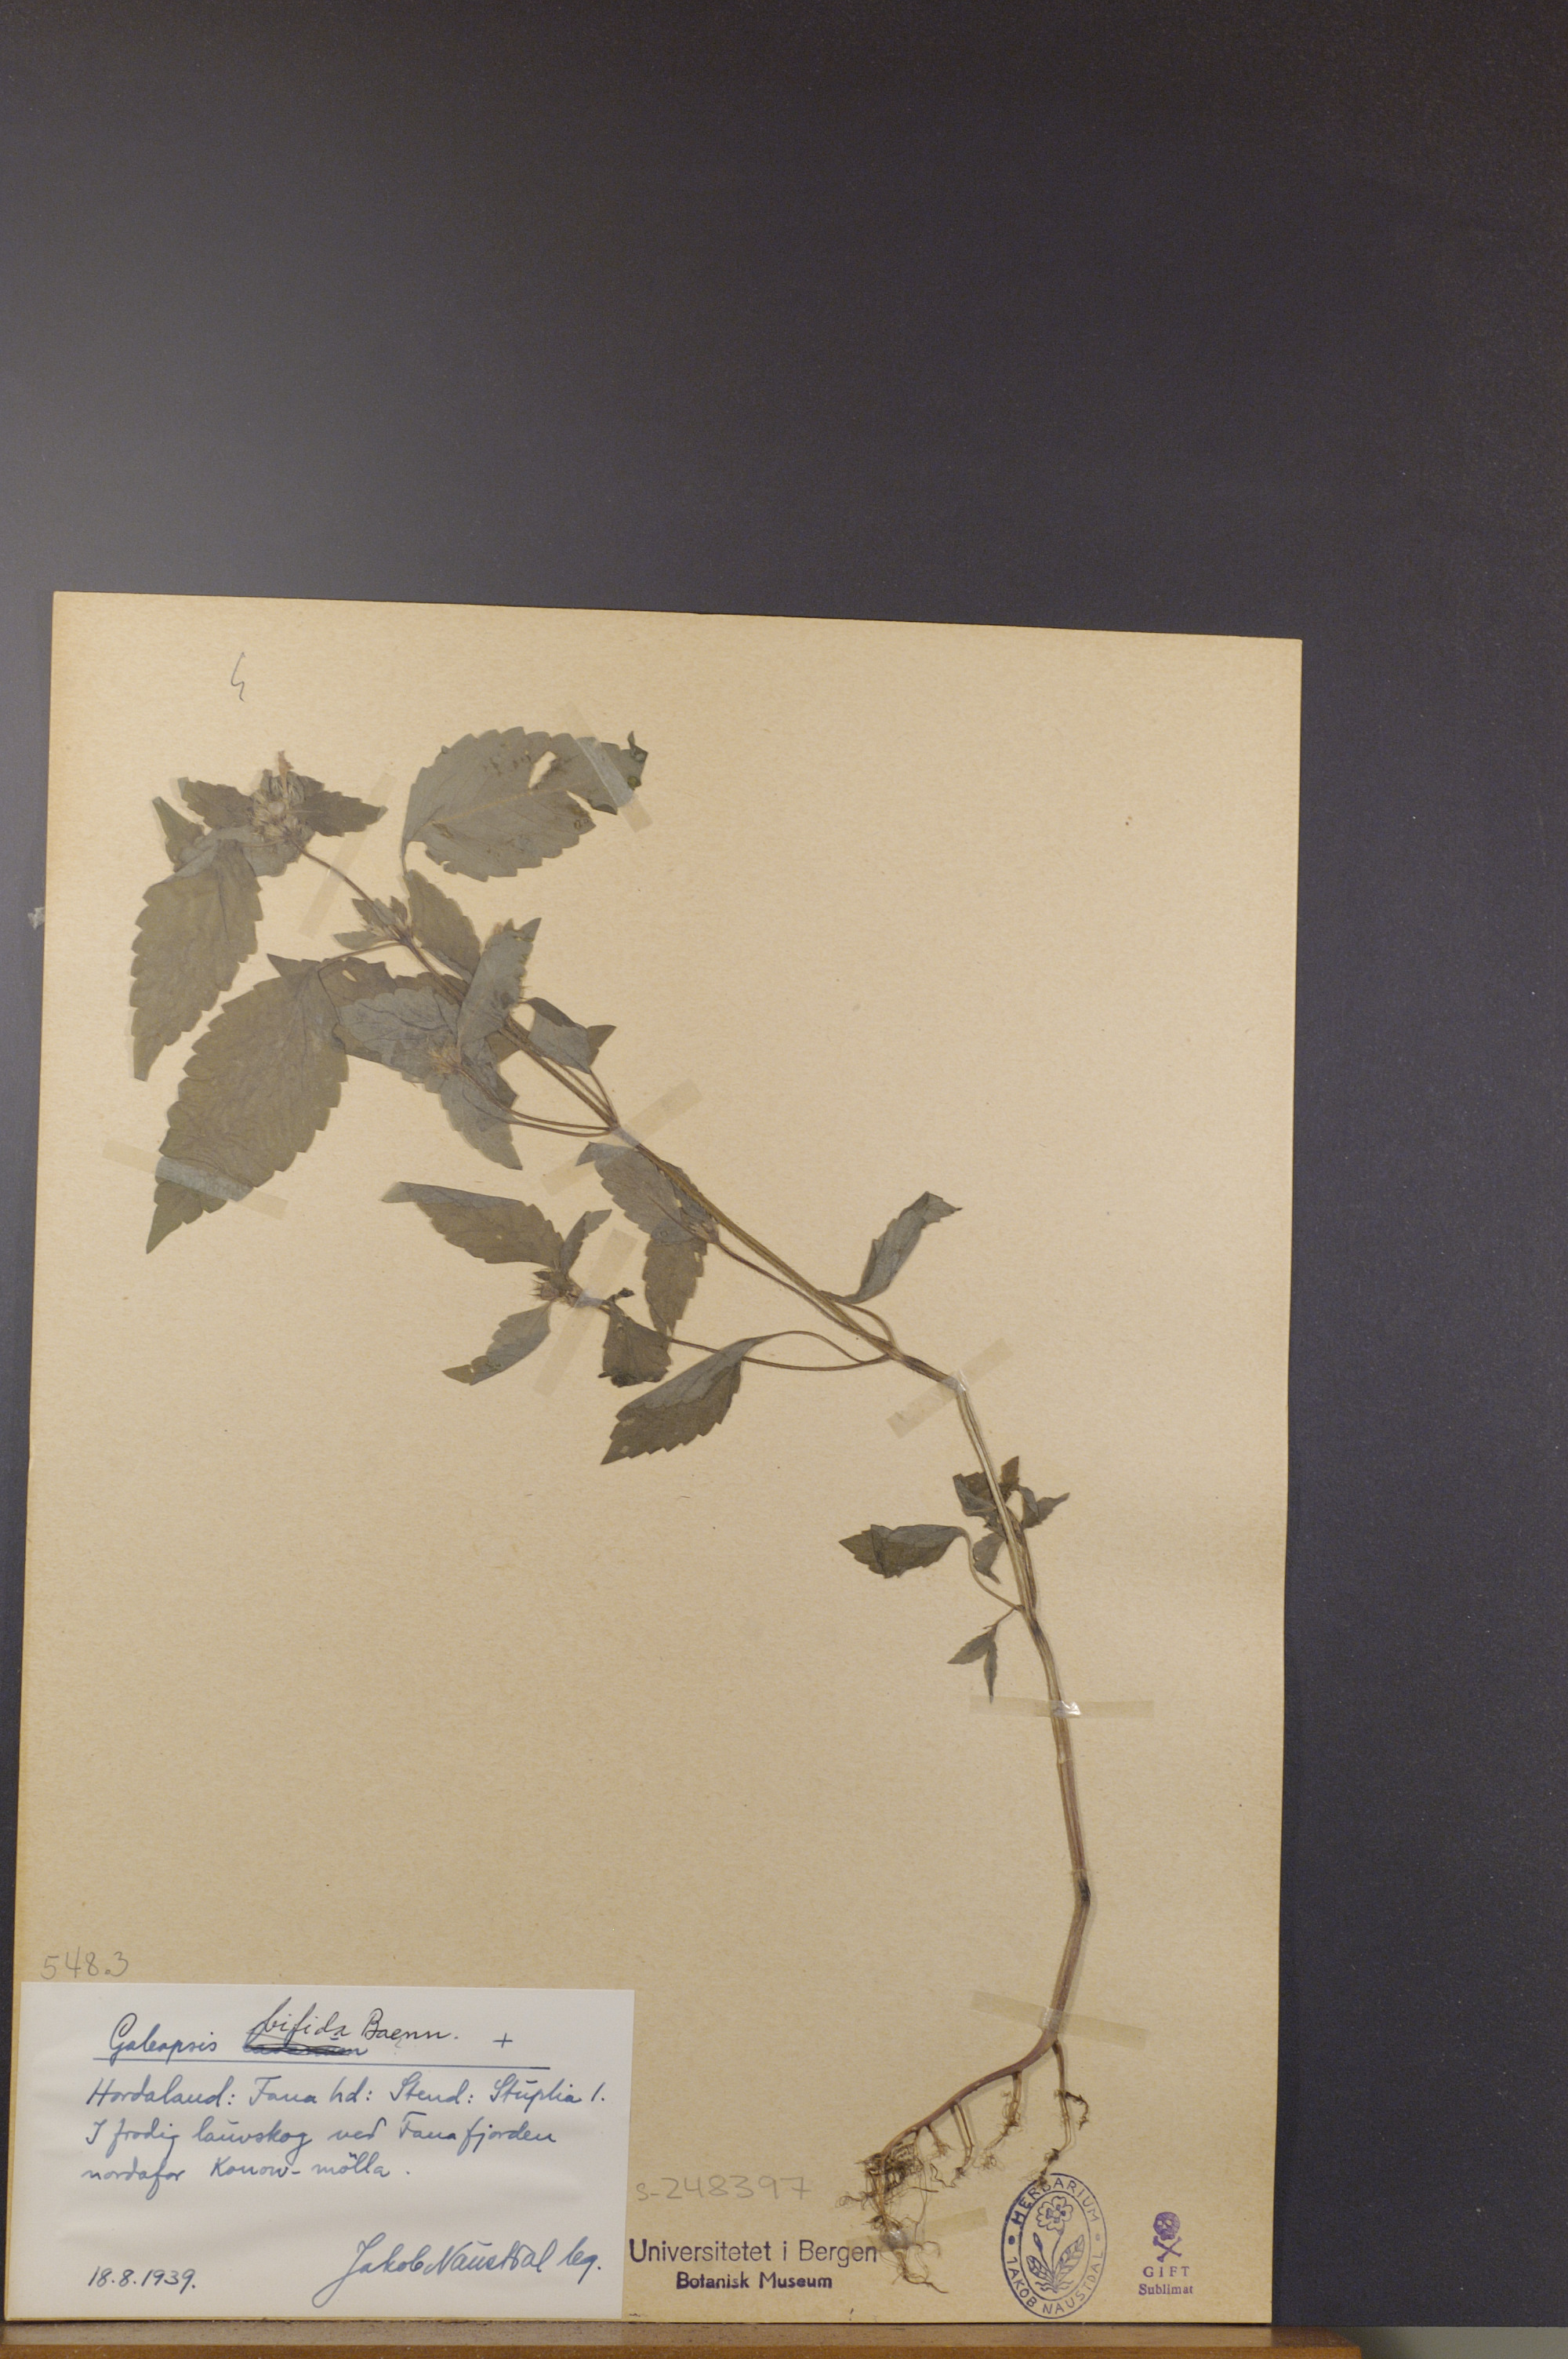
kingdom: Plantae
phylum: Tracheophyta
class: Magnoliopsida
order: Lamiales
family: Lamiaceae
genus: Galeopsis
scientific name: Galeopsis bifida
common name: Bifid hemp-nettle
